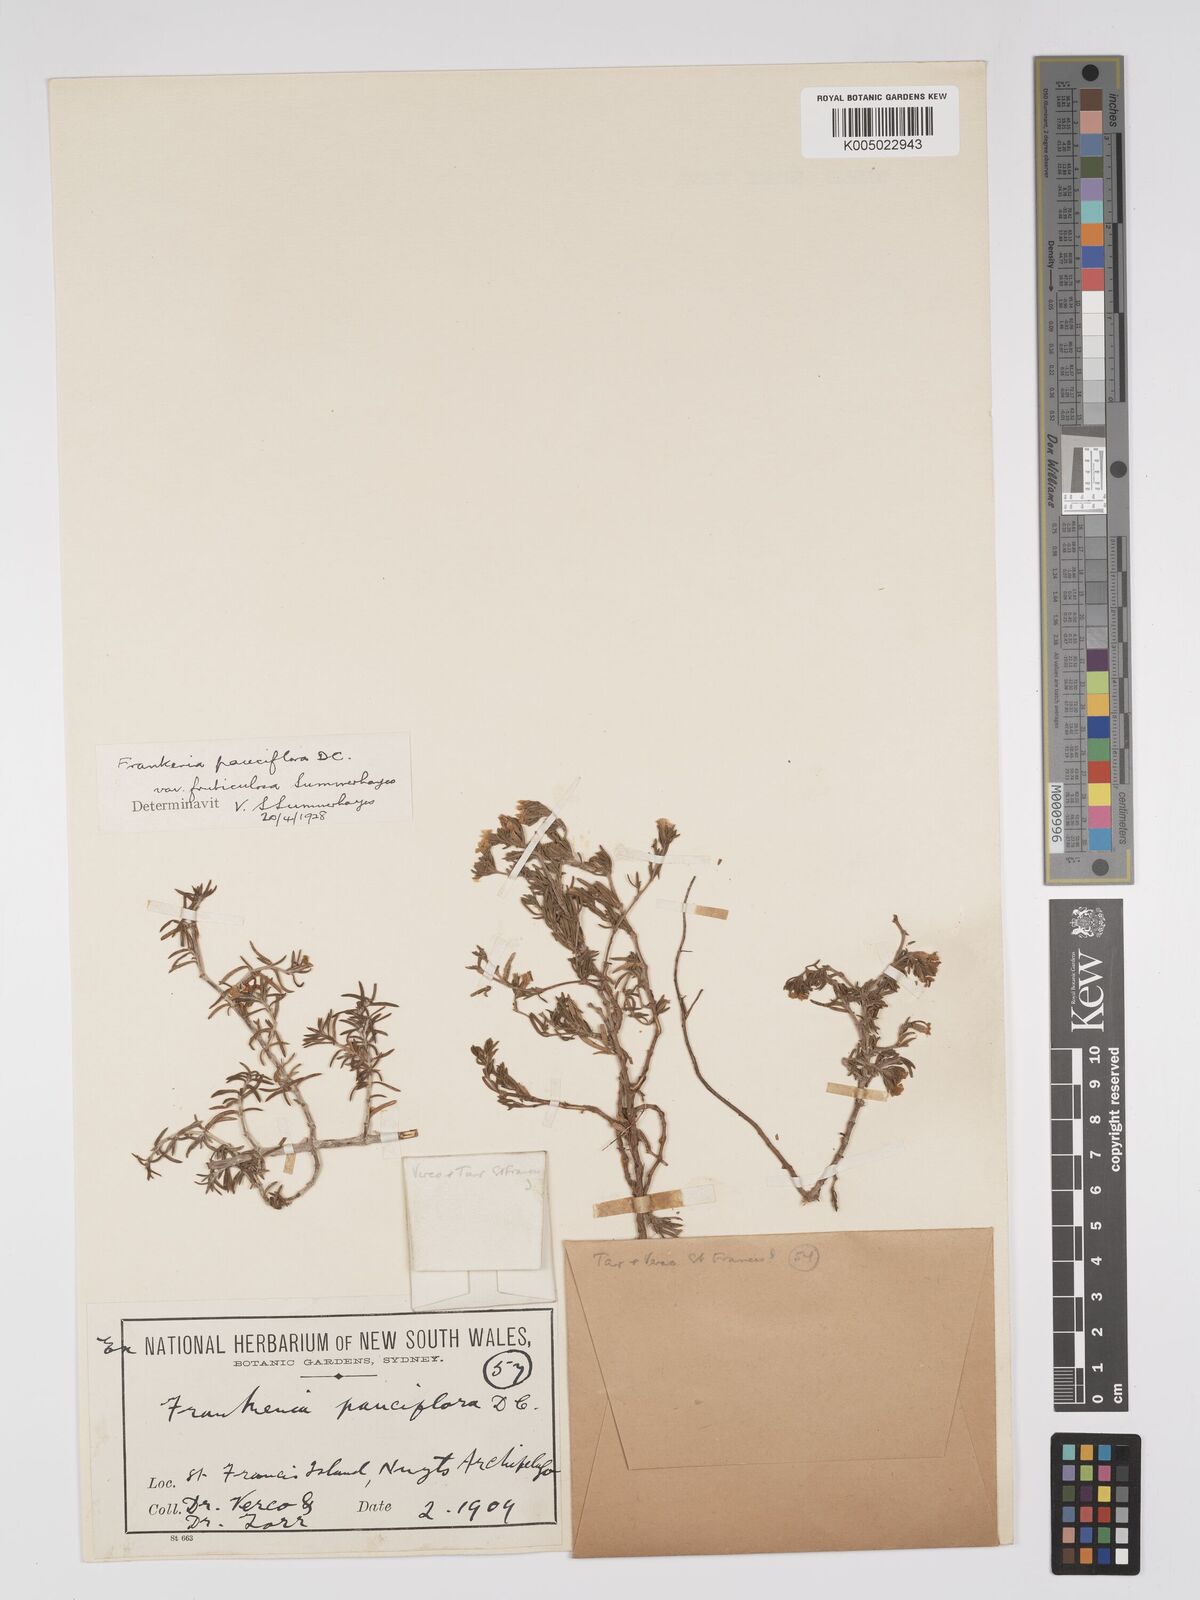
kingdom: Plantae
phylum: Tracheophyta
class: Magnoliopsida
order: Caryophyllales
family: Frankeniaceae
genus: Frankenia
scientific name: Frankenia pauciflora
